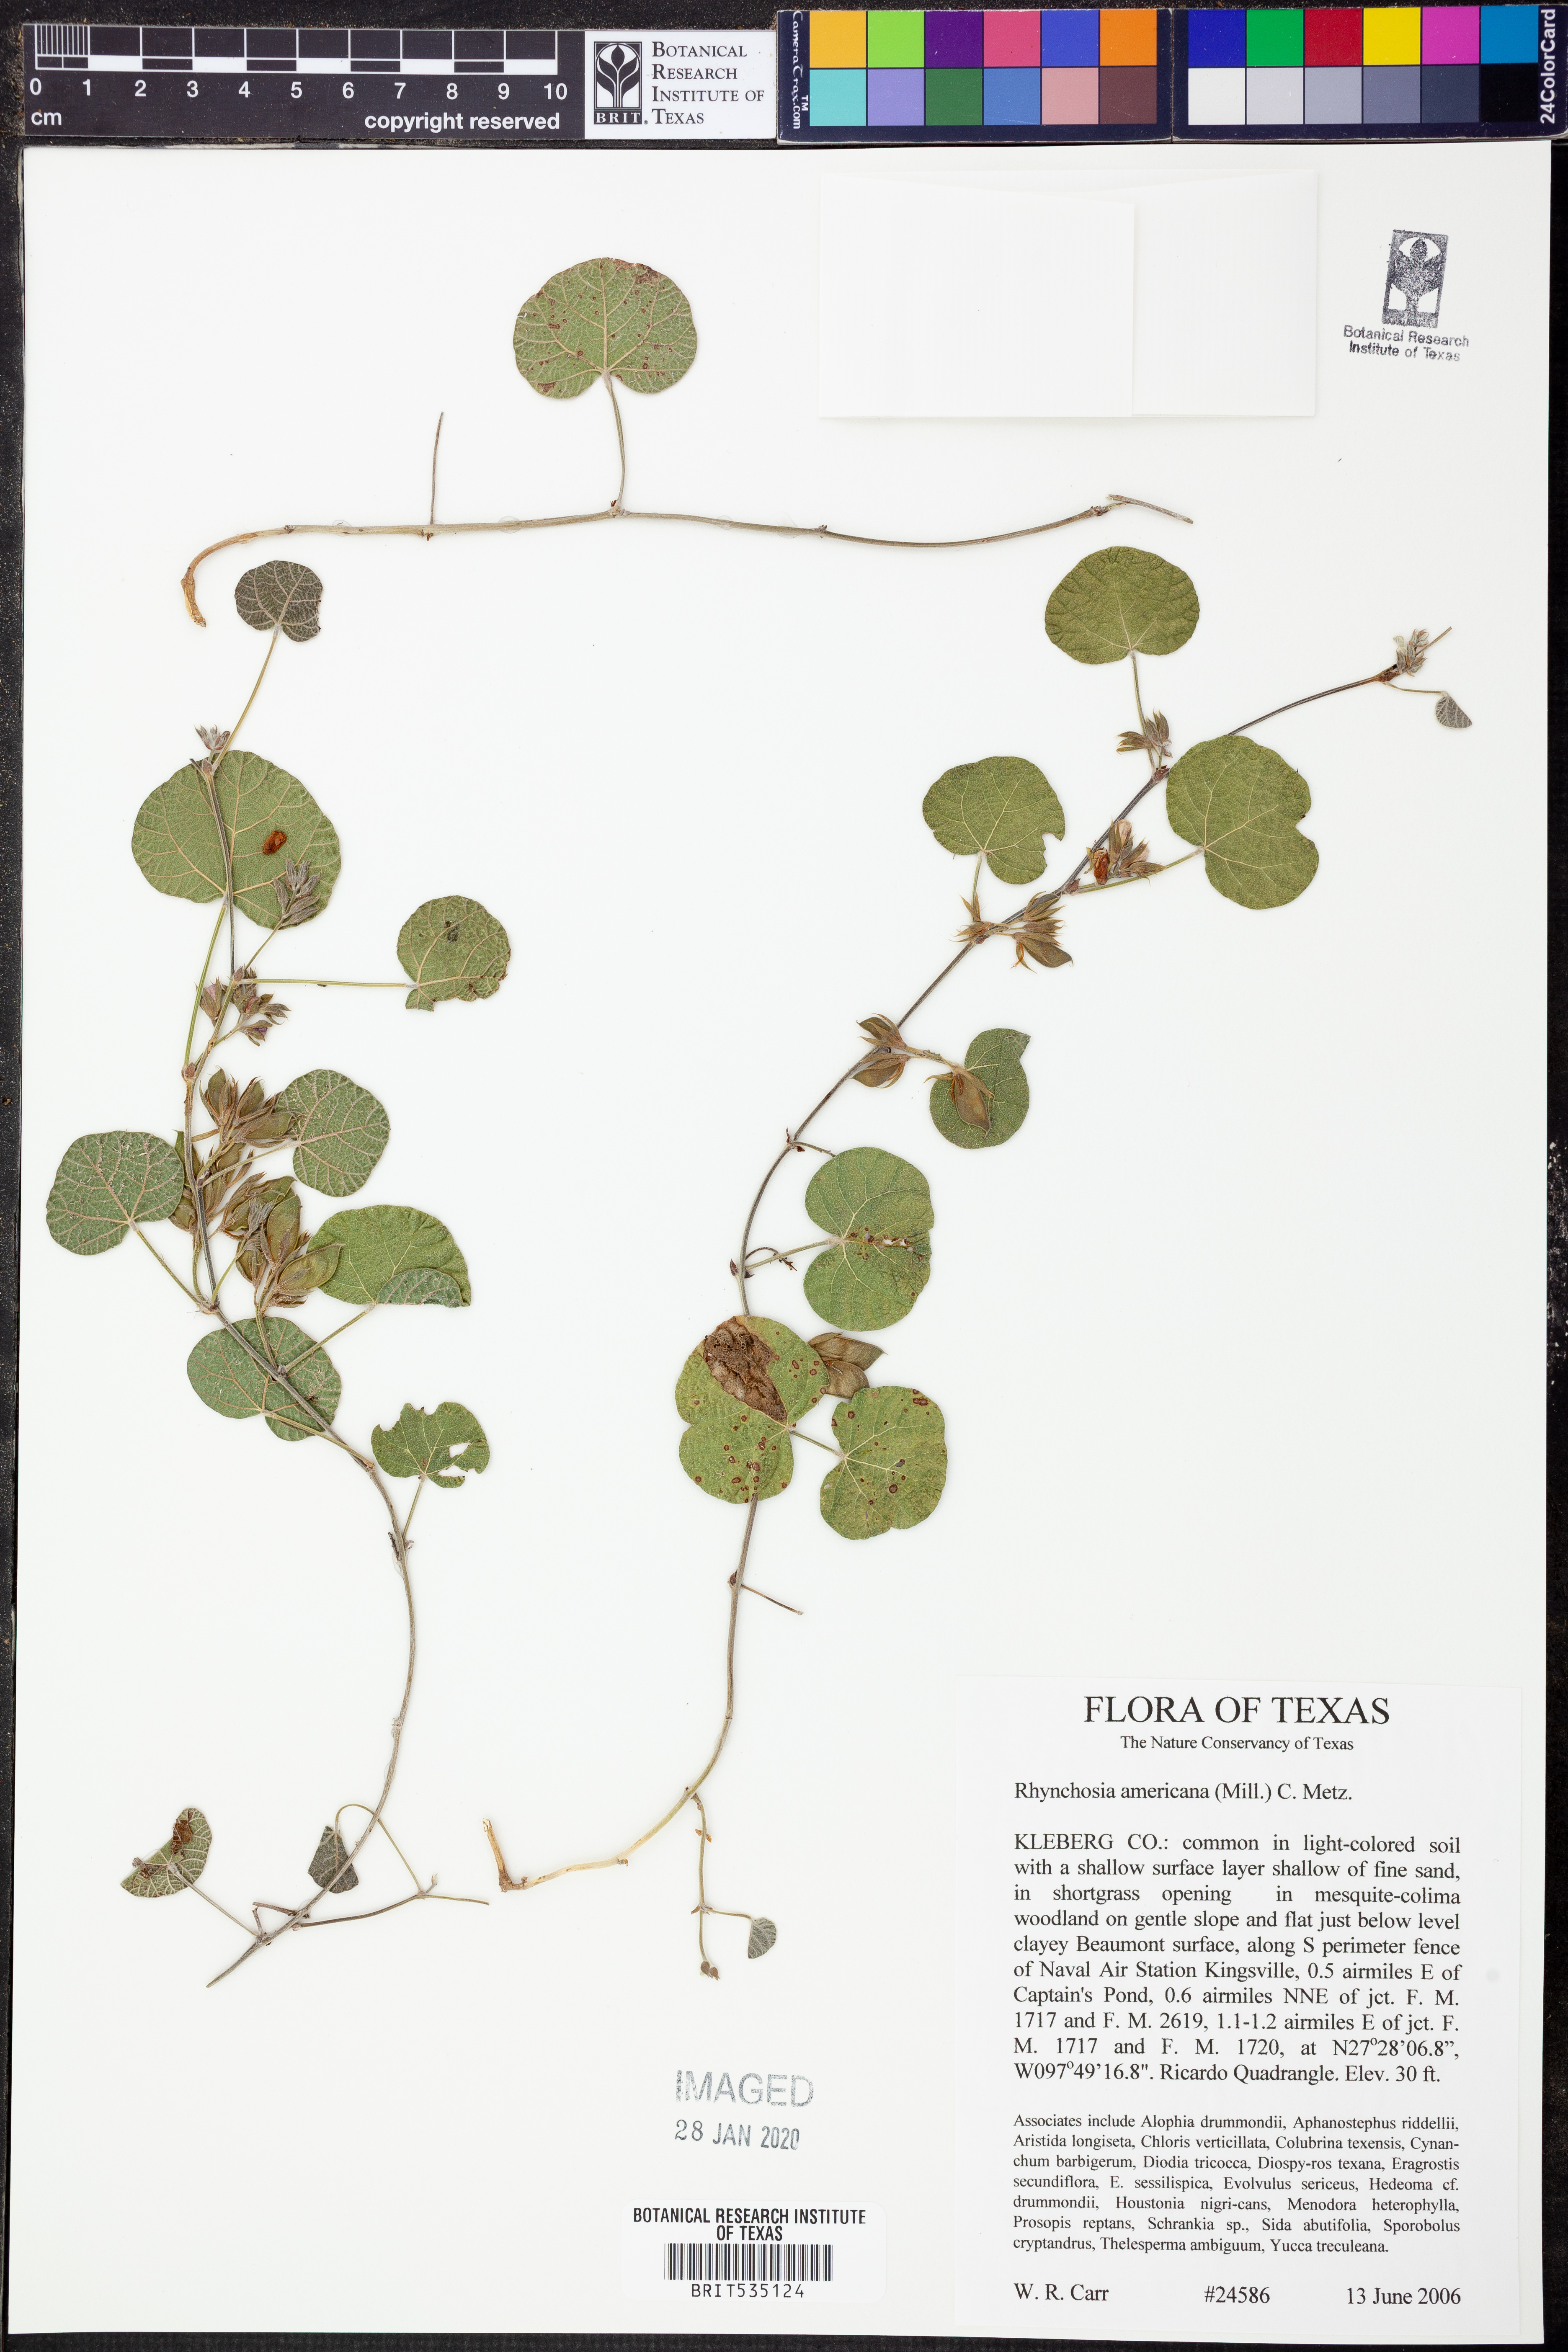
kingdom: Plantae
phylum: Tracheophyta
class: Magnoliopsida
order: Fabales
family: Fabaceae
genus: Rhynchosia
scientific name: Rhynchosia americana
